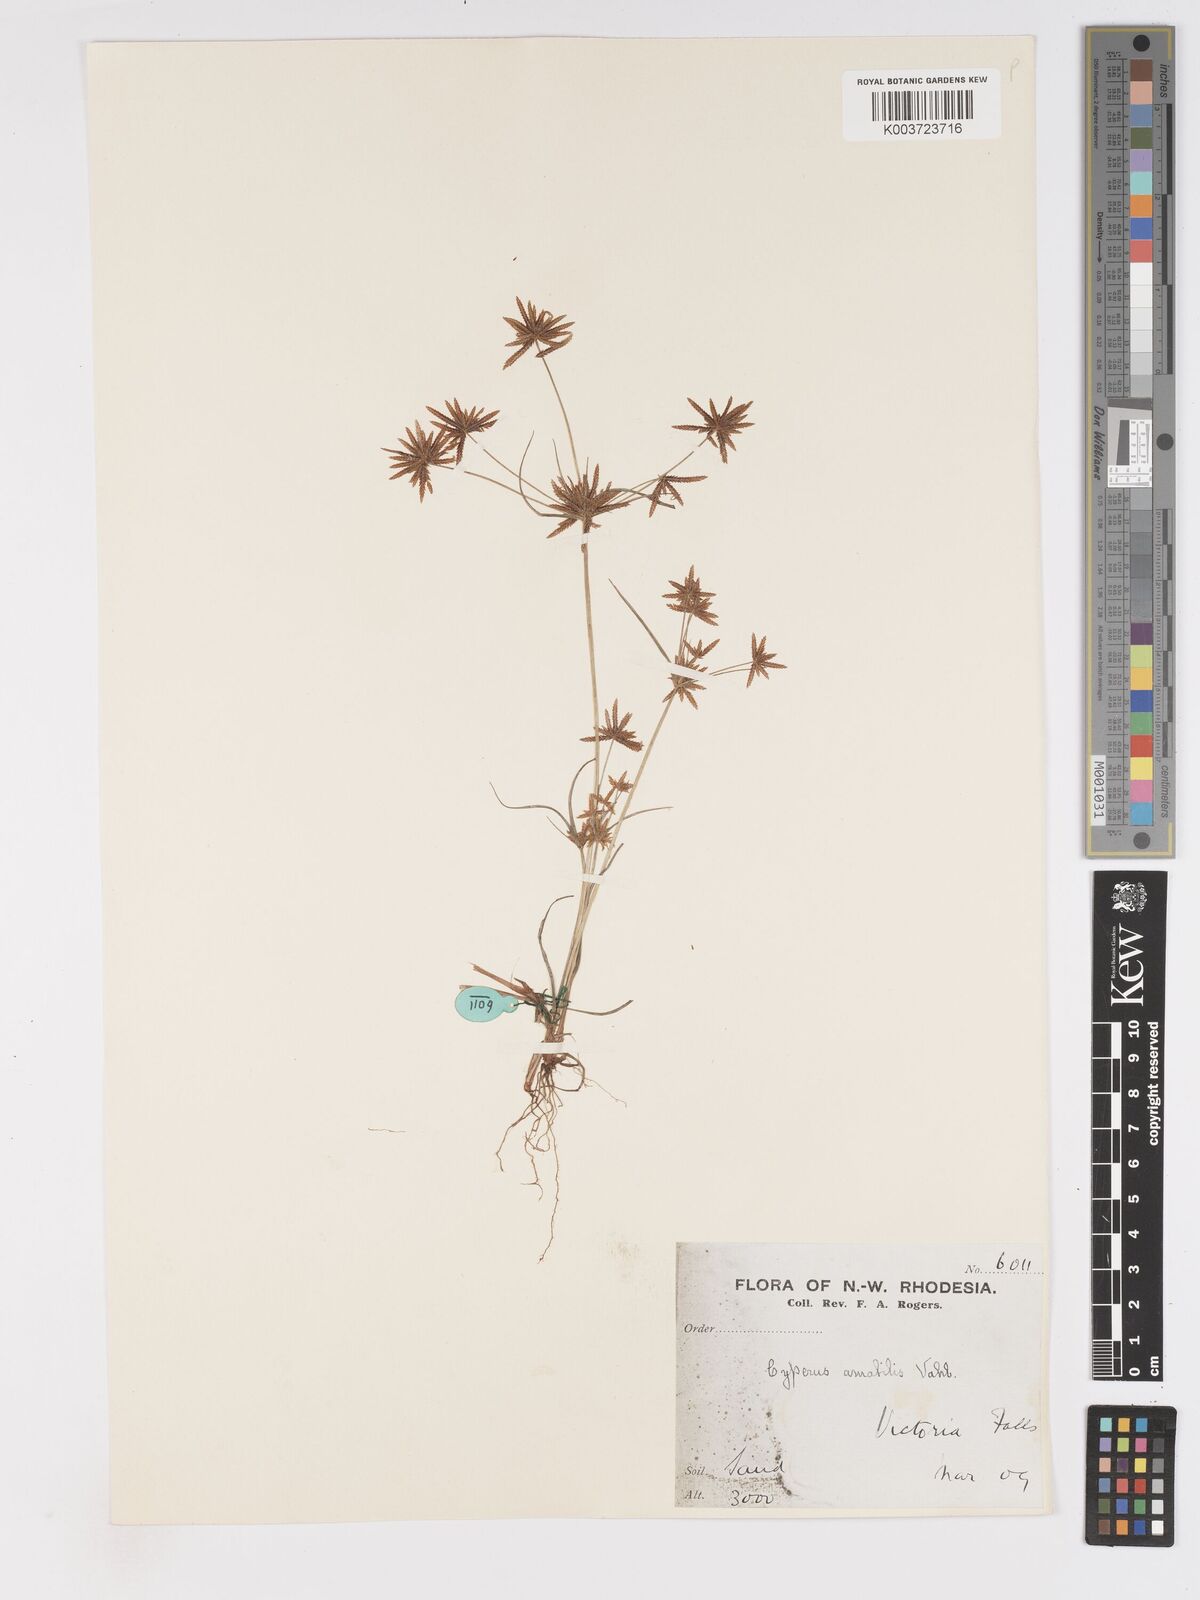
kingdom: Plantae
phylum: Tracheophyta
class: Liliopsida
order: Poales
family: Cyperaceae
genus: Cyperus
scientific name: Cyperus amabilis
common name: Foothill flat sedge
